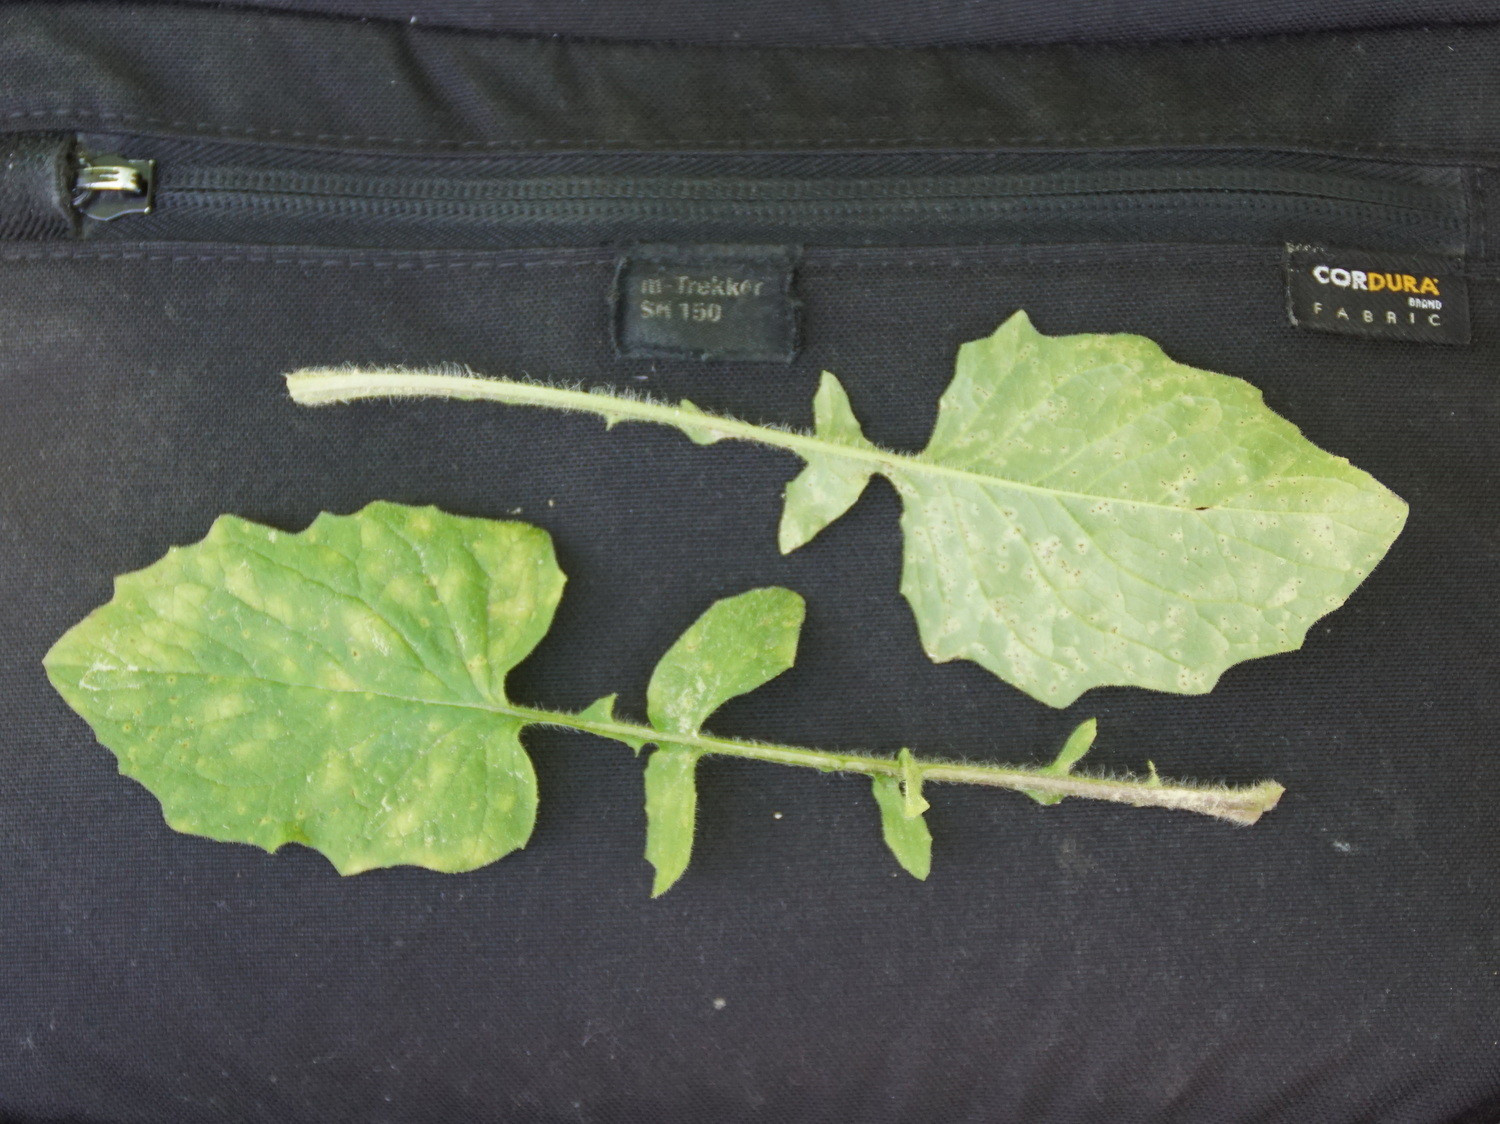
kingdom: Fungi
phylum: Basidiomycota
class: Pucciniomycetes
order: Pucciniales
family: Pucciniaceae
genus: Puccinia
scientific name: Puccinia lapsanae
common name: Nipplewort rust
